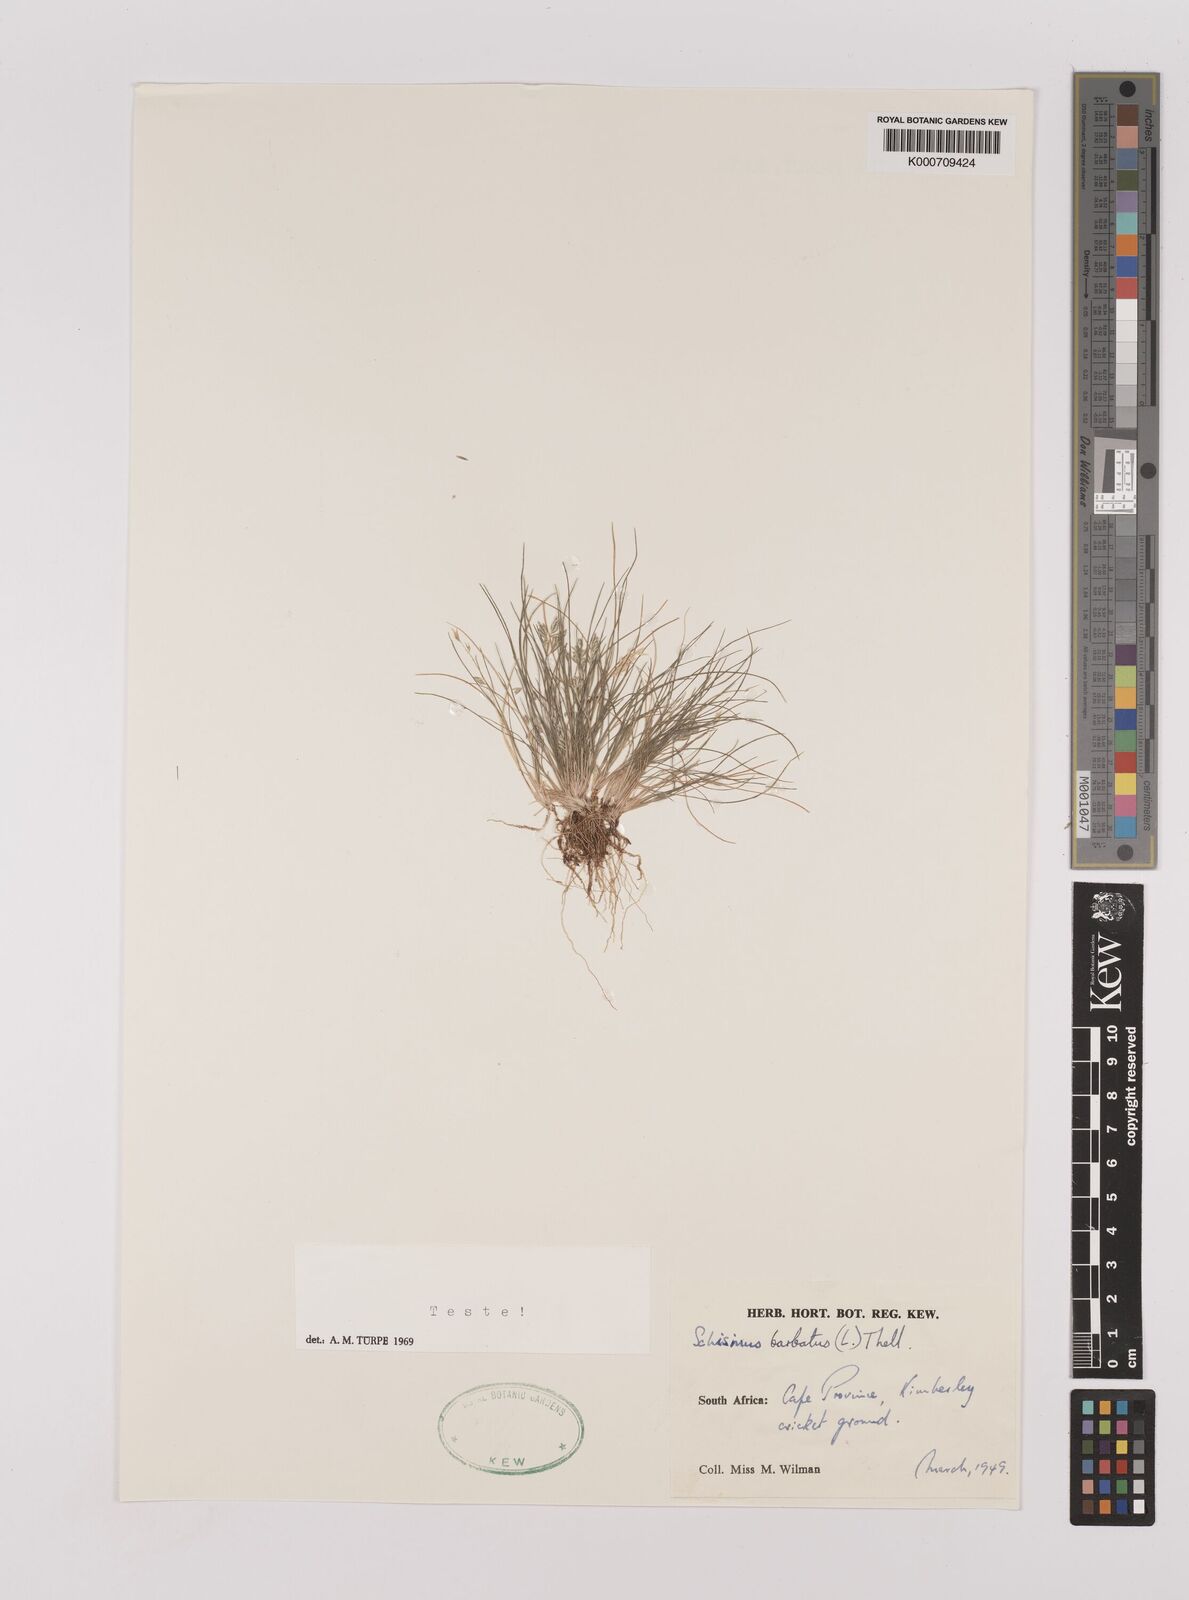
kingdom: Plantae
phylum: Tracheophyta
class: Liliopsida
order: Poales
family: Poaceae
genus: Schismus
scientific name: Schismus barbatus
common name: Kelch-grass
